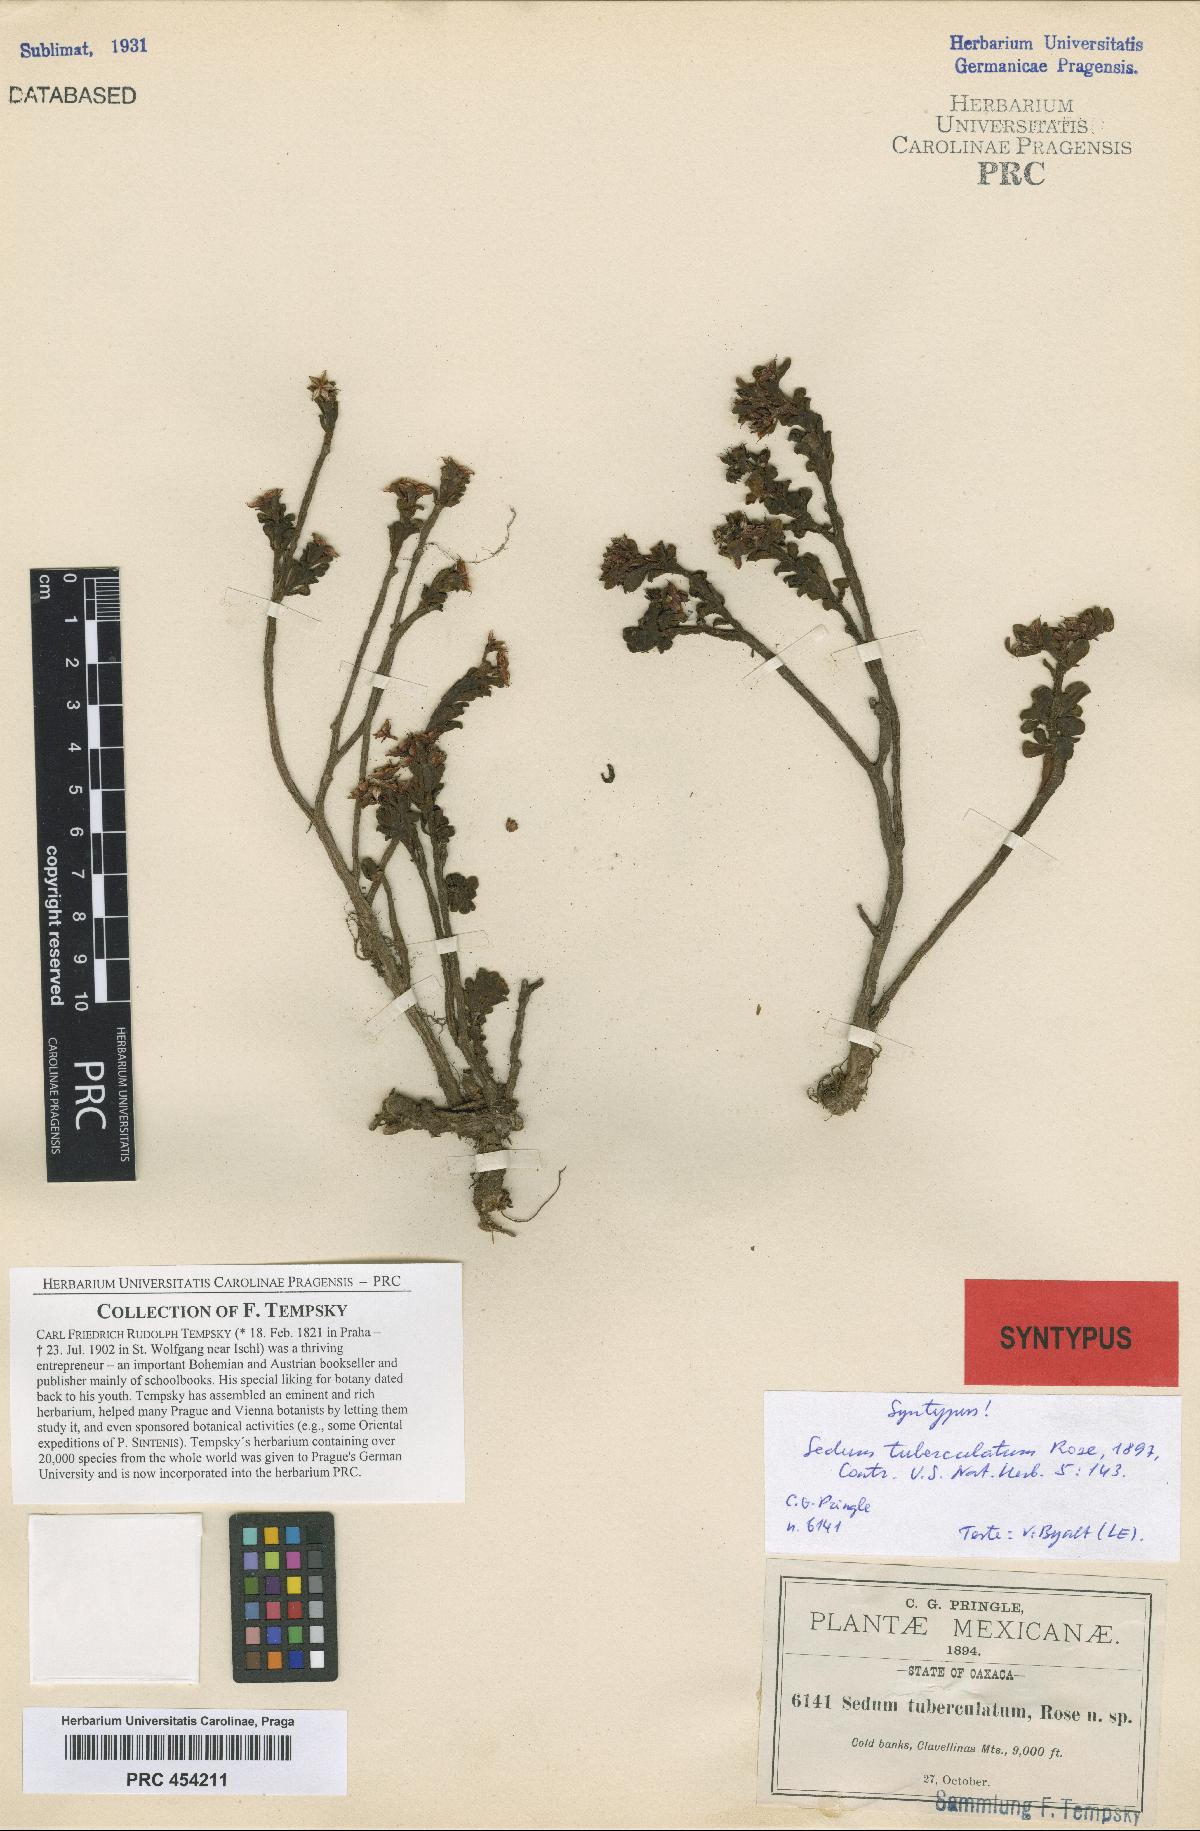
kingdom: Plantae
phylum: Tracheophyta
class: Magnoliopsida
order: Saxifragales
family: Crassulaceae
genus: Sedum
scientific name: Sedum tuberculatum
